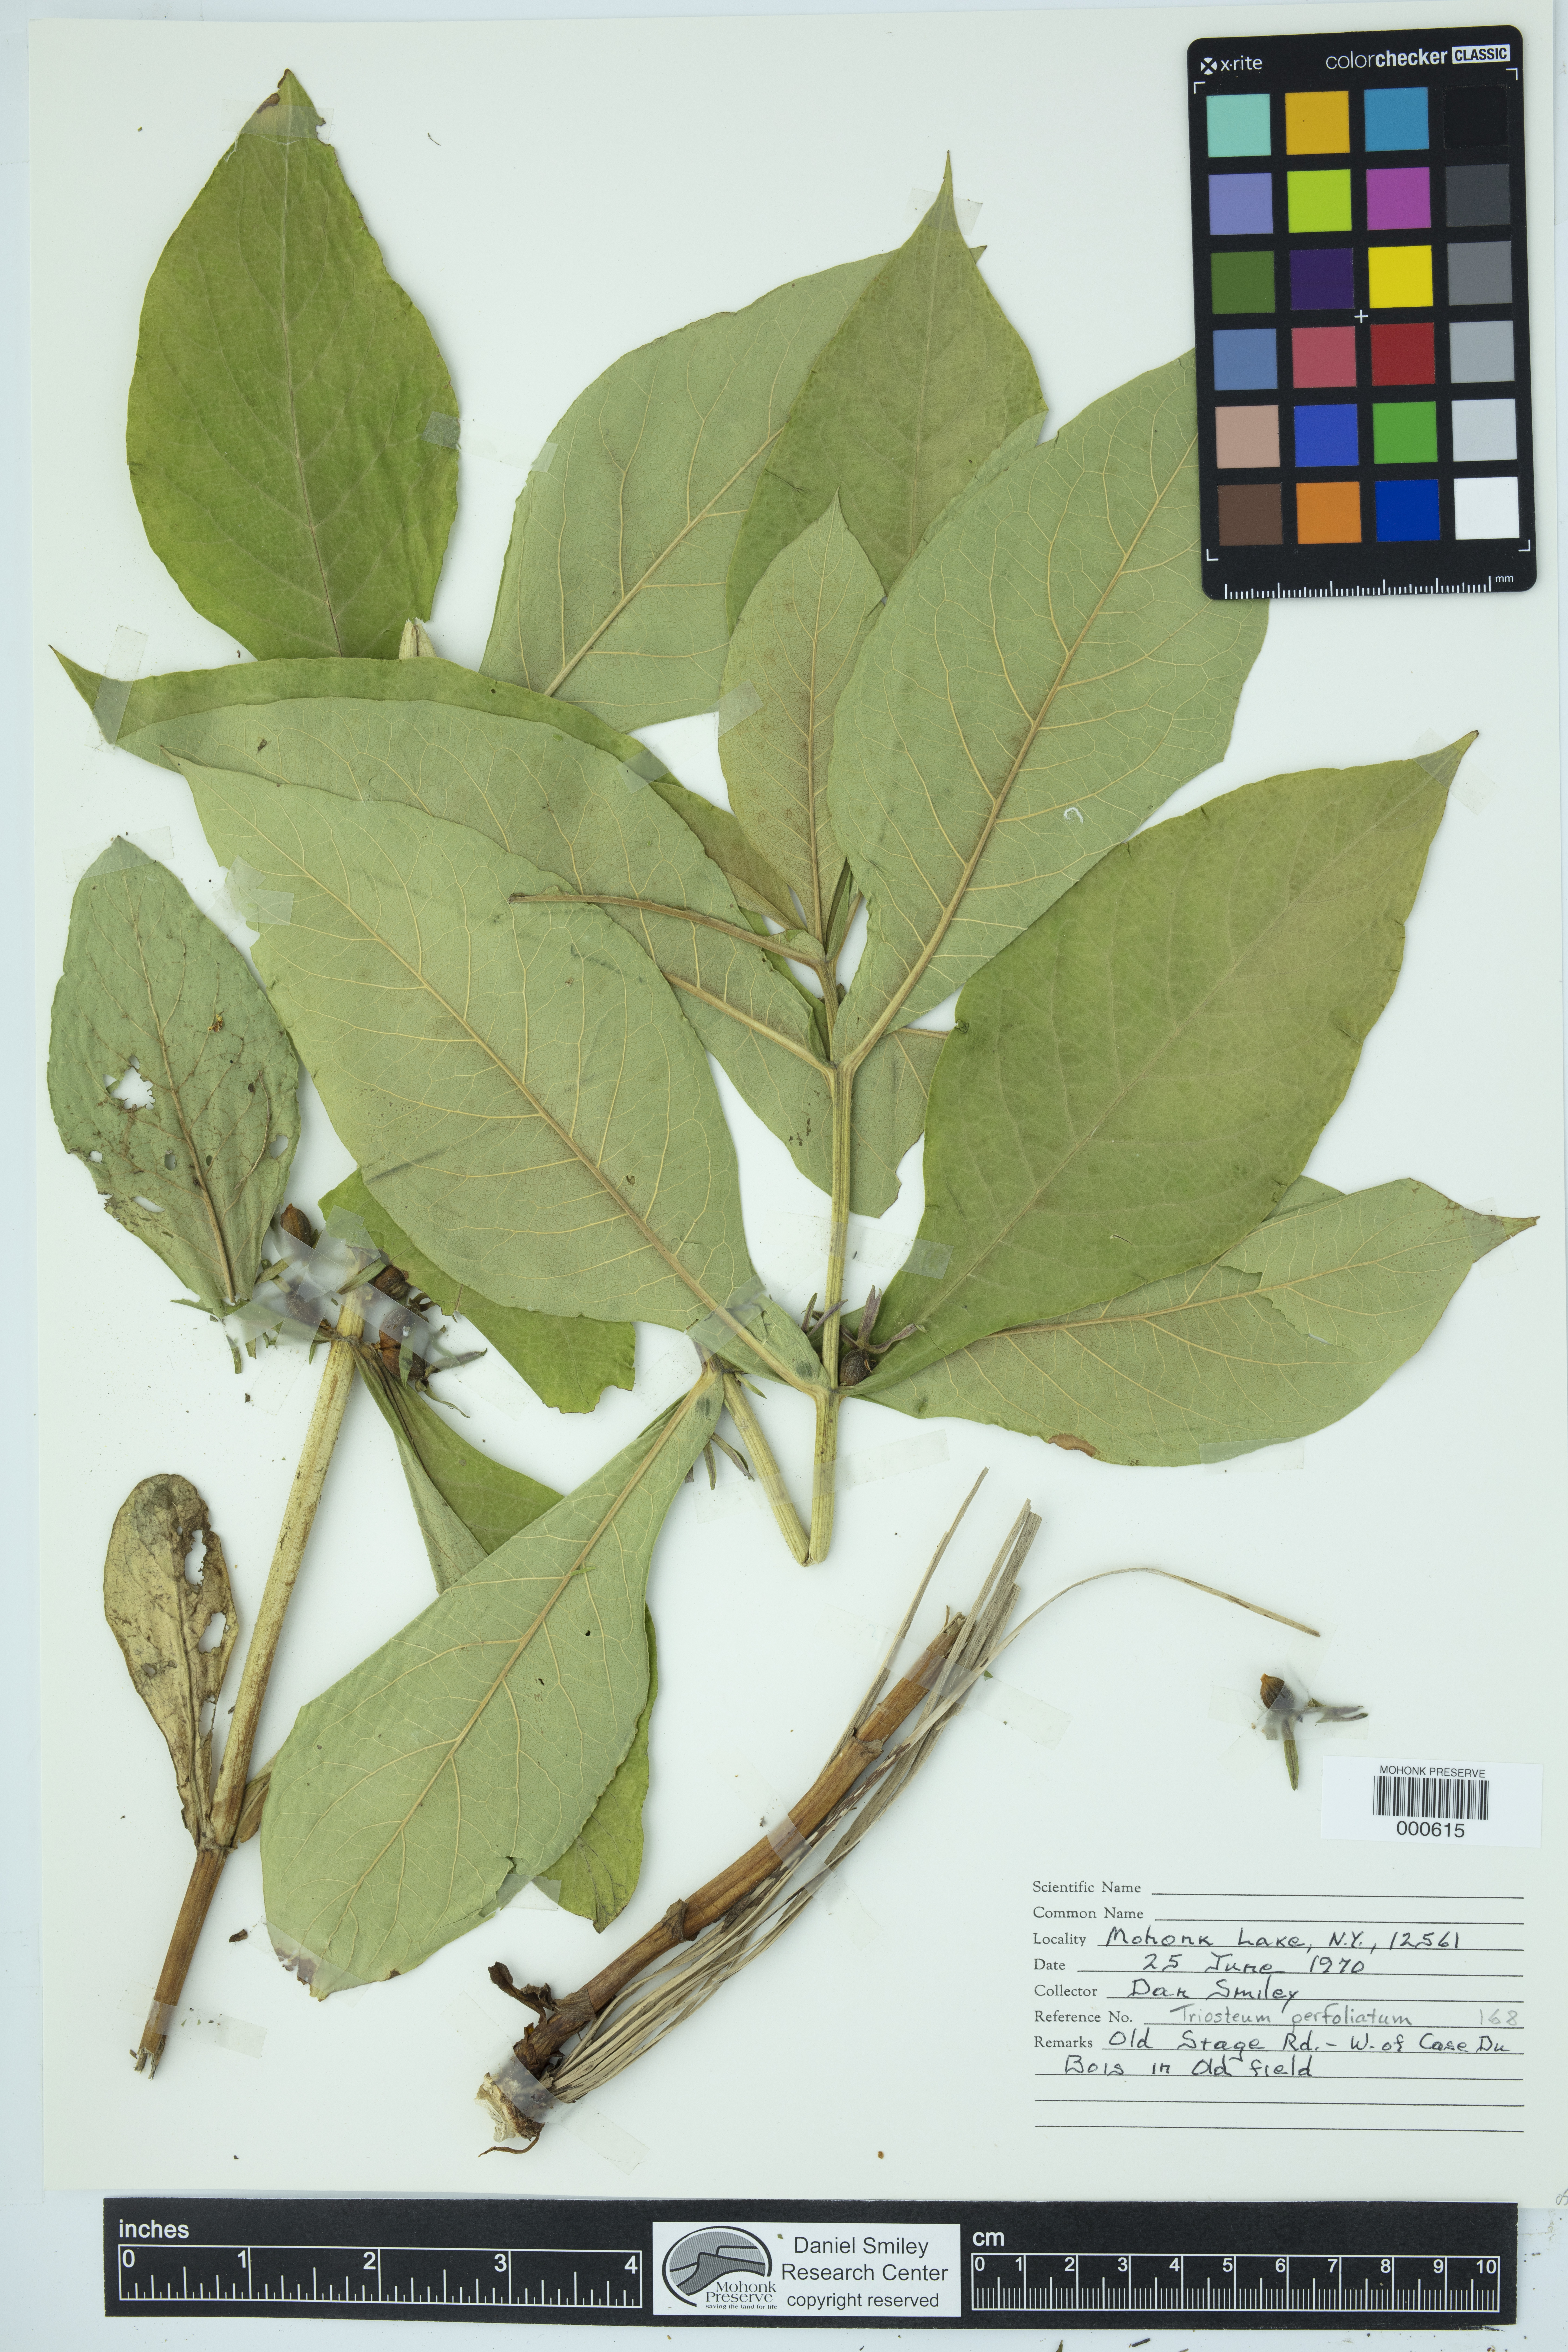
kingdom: Plantae
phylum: Tracheophyta
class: Magnoliopsida
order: Dipsacales
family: Caprifoliaceae
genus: Triosteum
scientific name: Triosteum perfoliatum
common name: Common horse-gentian
